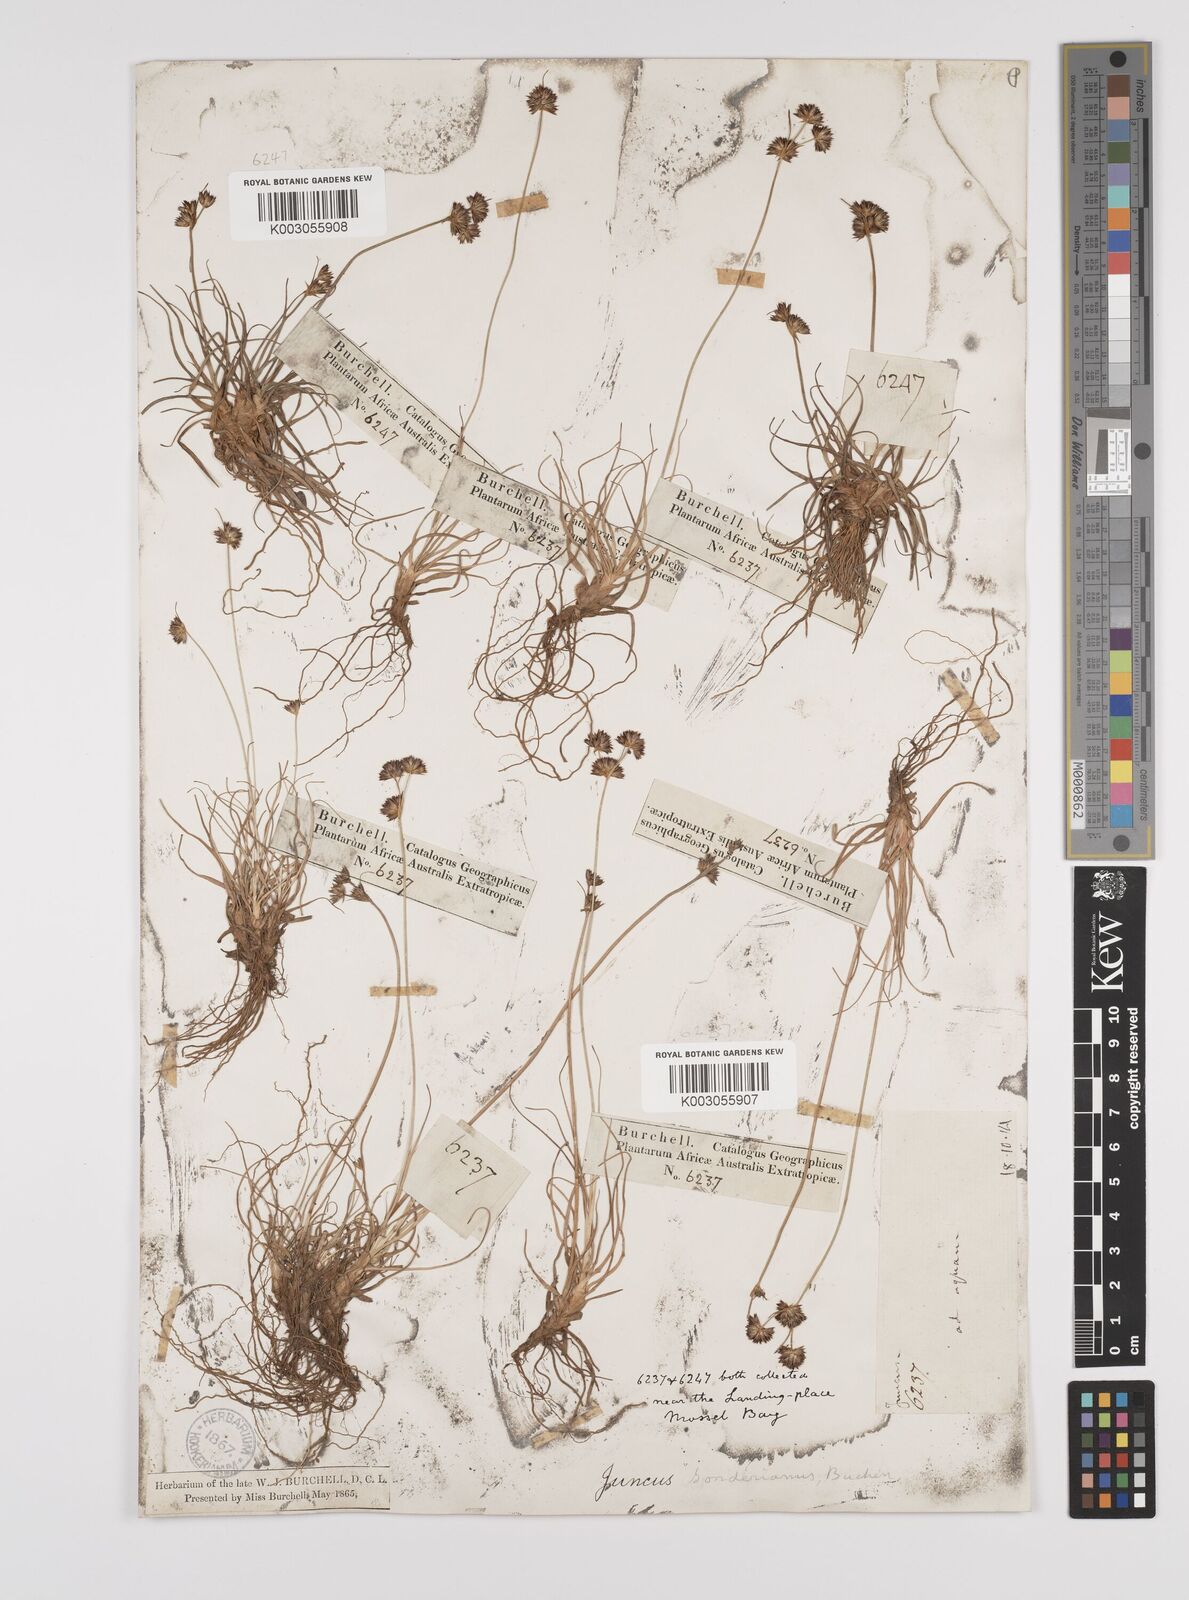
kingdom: Plantae
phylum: Tracheophyta
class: Liliopsida
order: Poales
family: Juncaceae
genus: Juncus
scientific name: Juncus sonderianus
